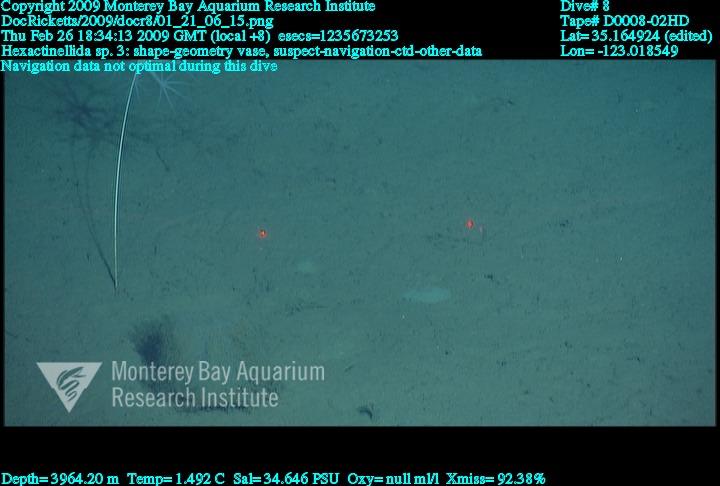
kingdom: Animalia
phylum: Porifera
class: Hexactinellida
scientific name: Hexactinellida
